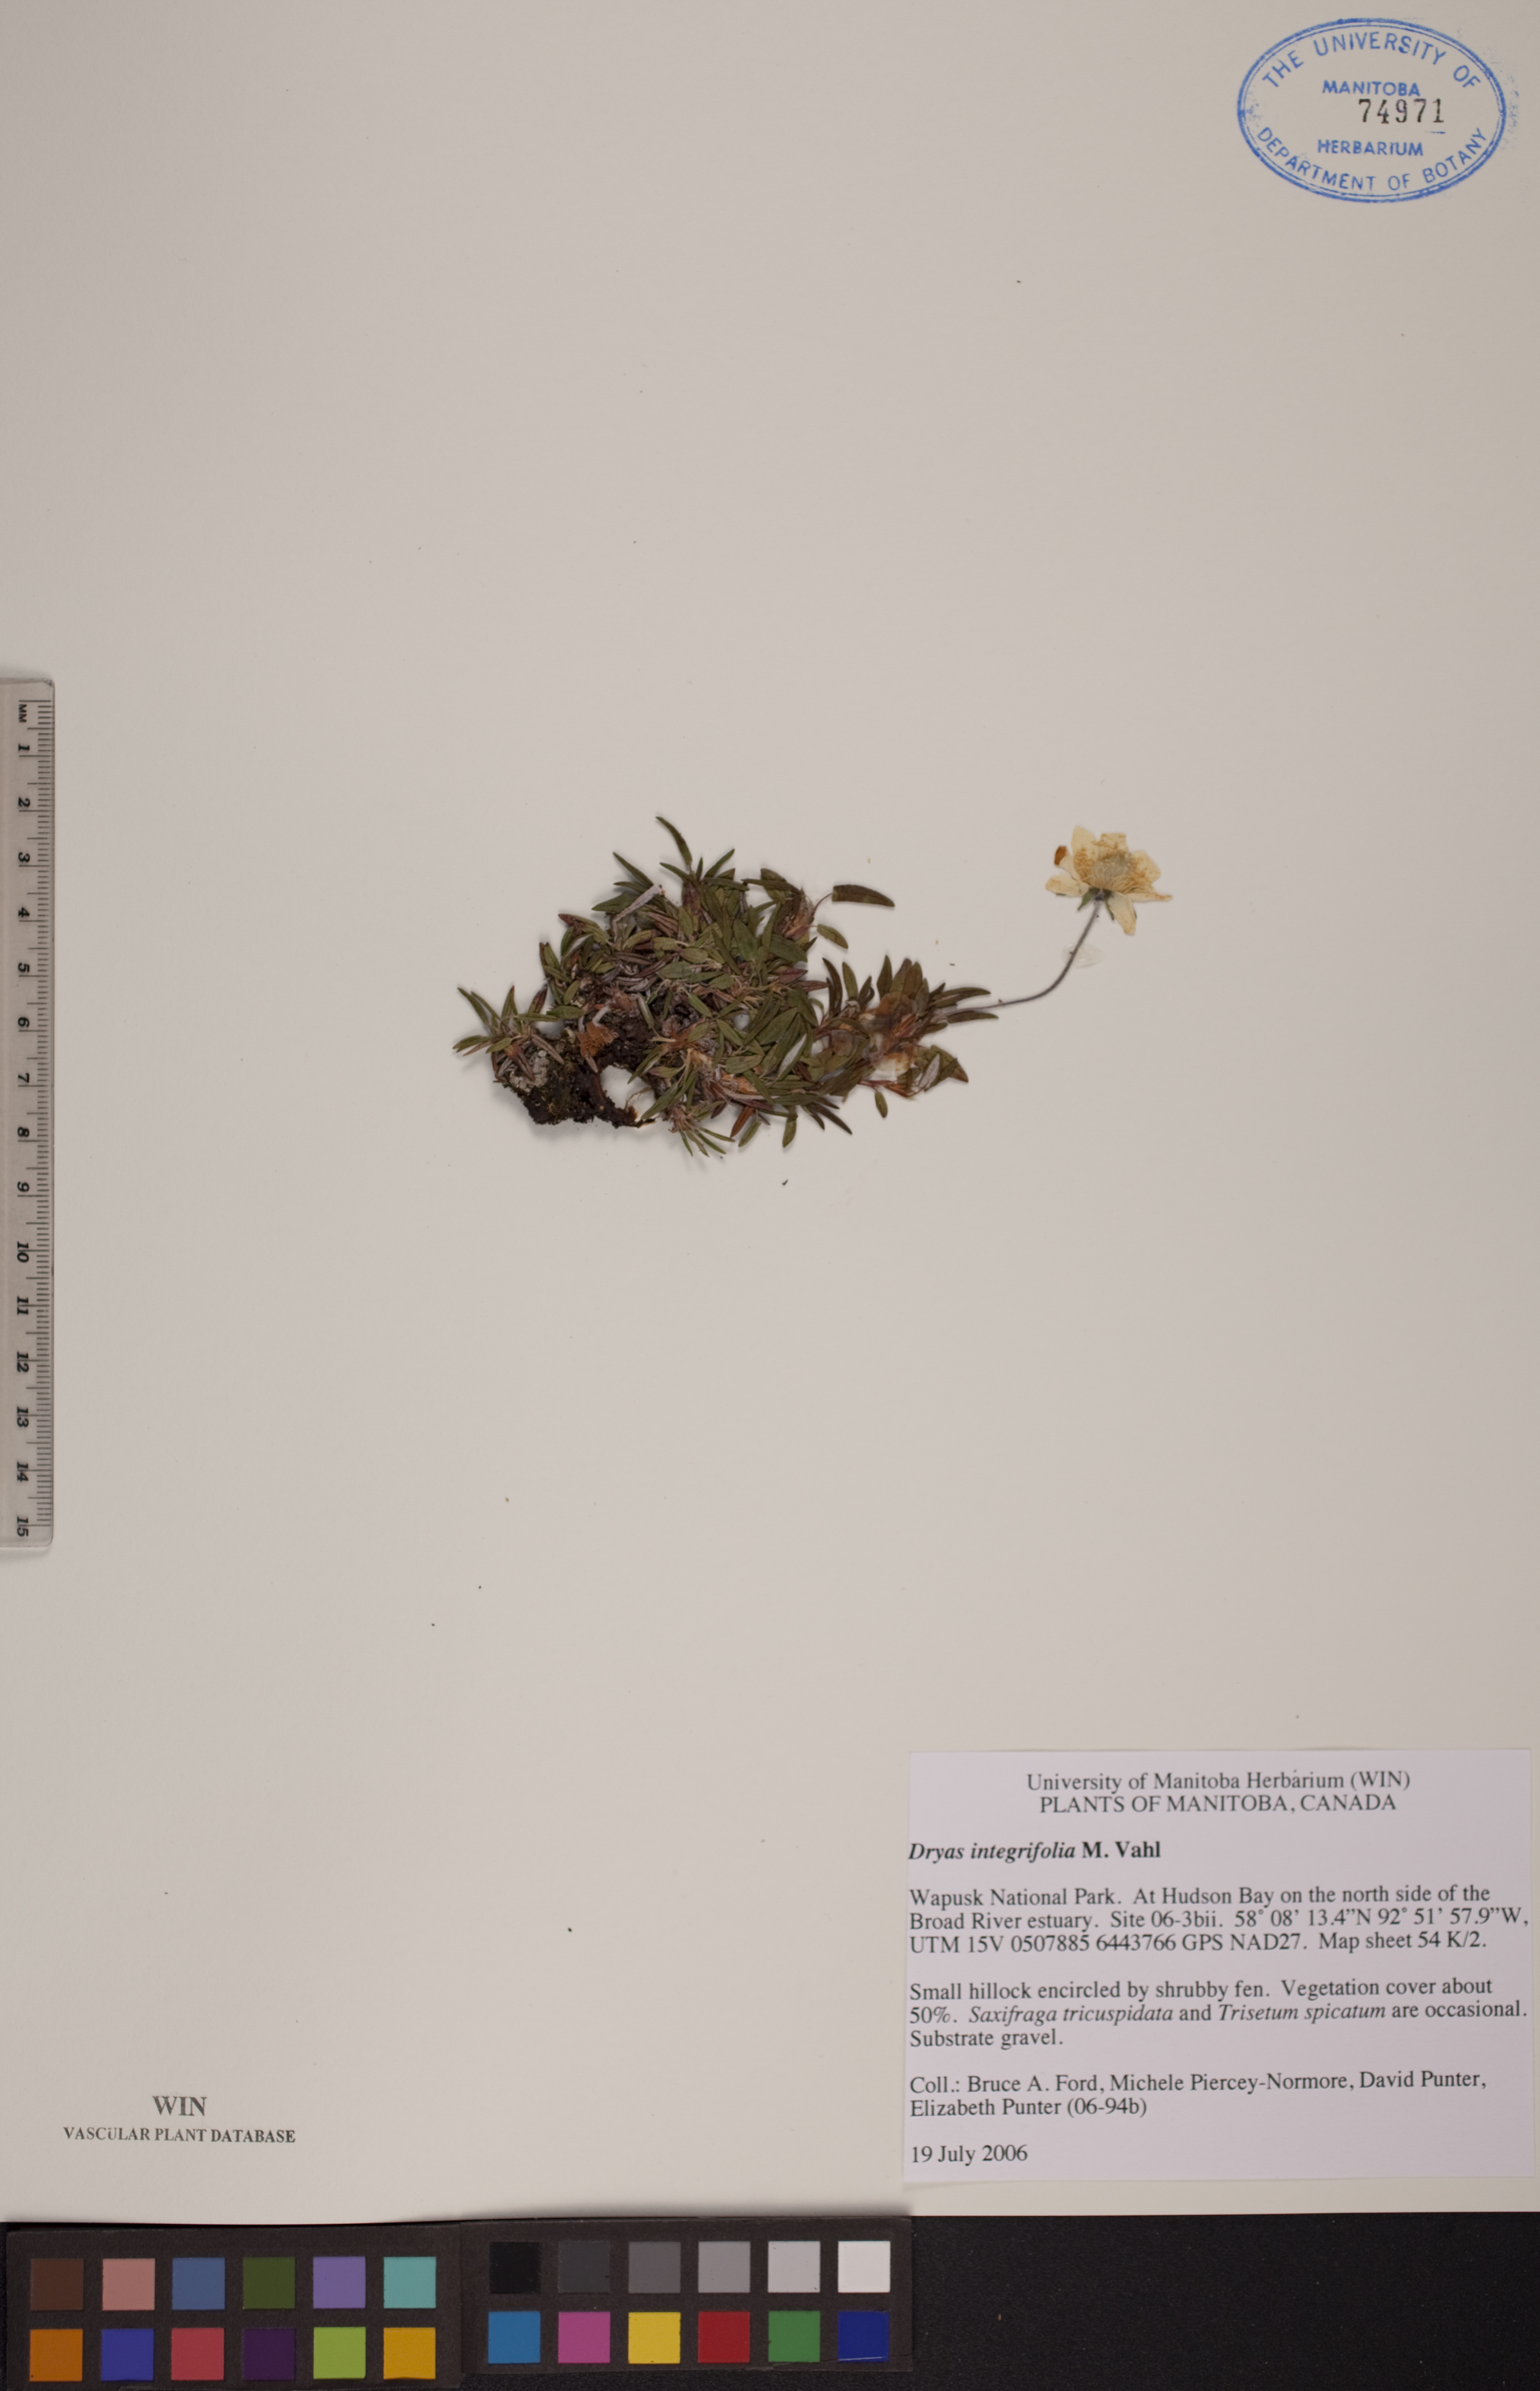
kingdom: Plantae
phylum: Tracheophyta
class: Magnoliopsida
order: Rosales
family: Rosaceae
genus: Dryas
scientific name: Dryas integrifolia
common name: Entire-leaved mountain avens
